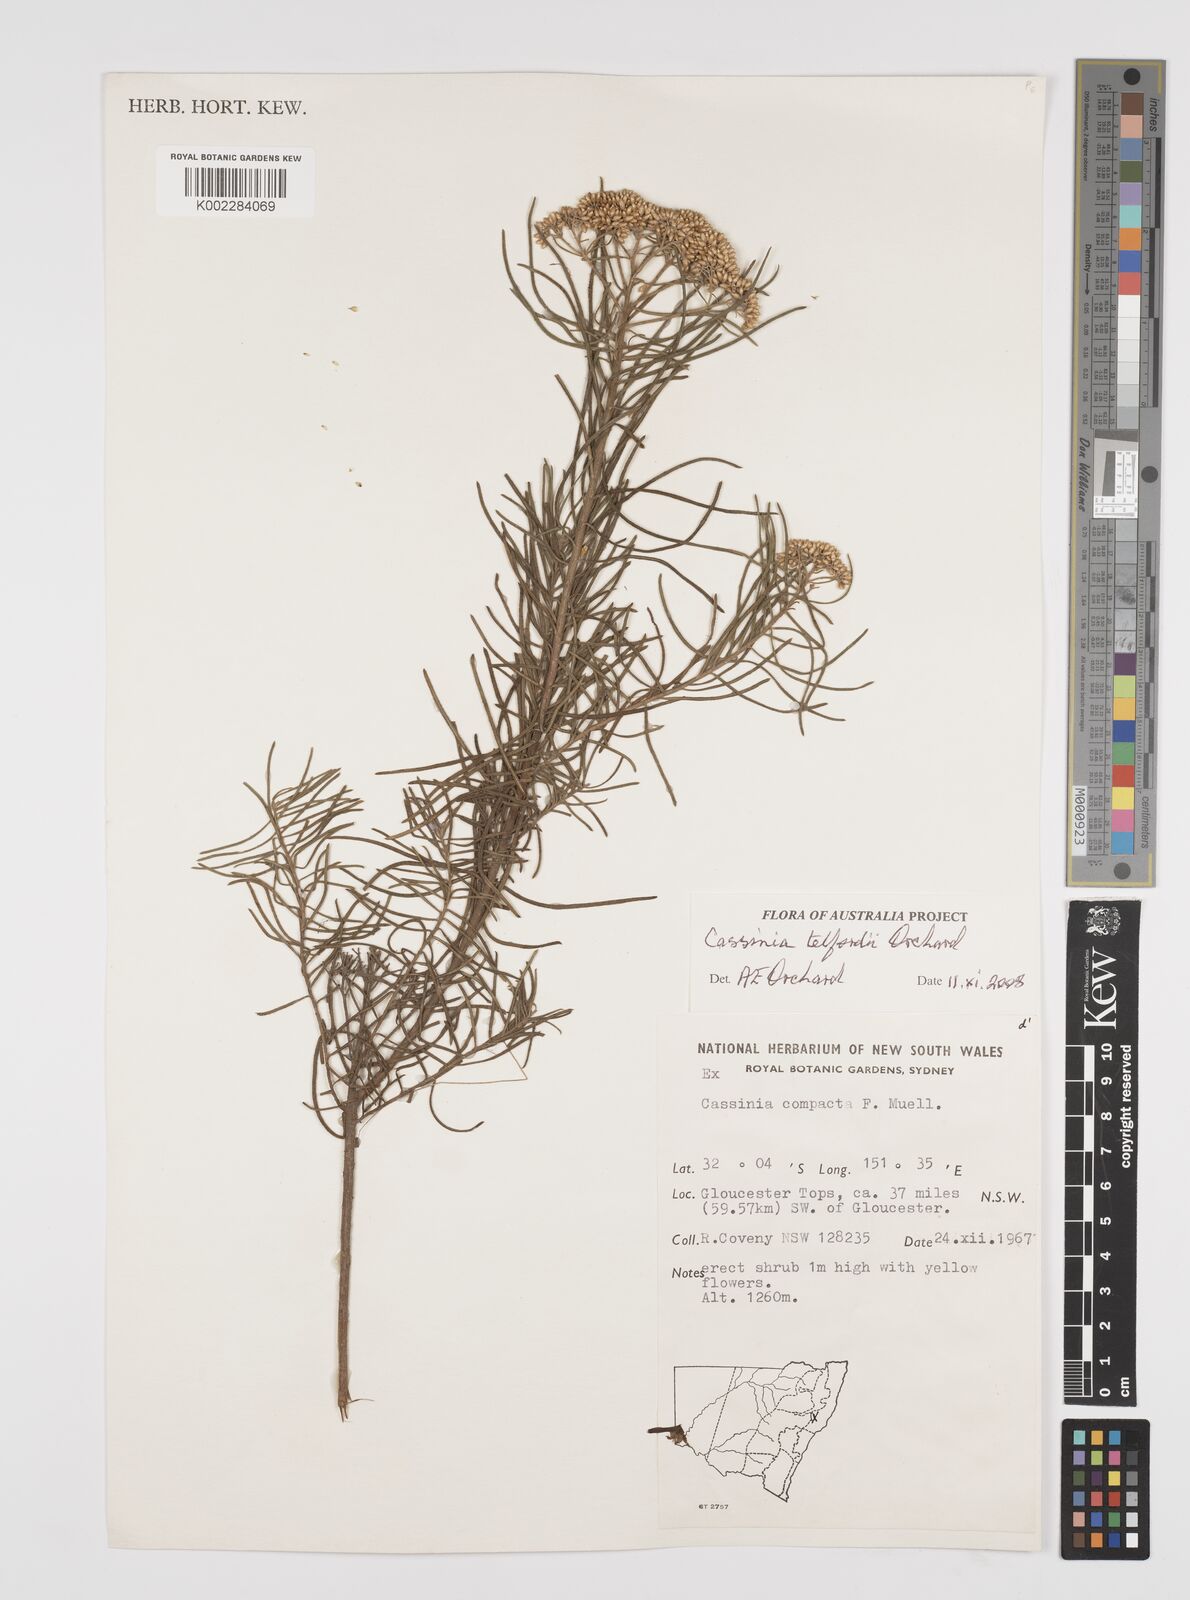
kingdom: Plantae
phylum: Tracheophyta
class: Magnoliopsida
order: Asterales
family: Asteraceae
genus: Cassinia
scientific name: Cassinia telfordii
